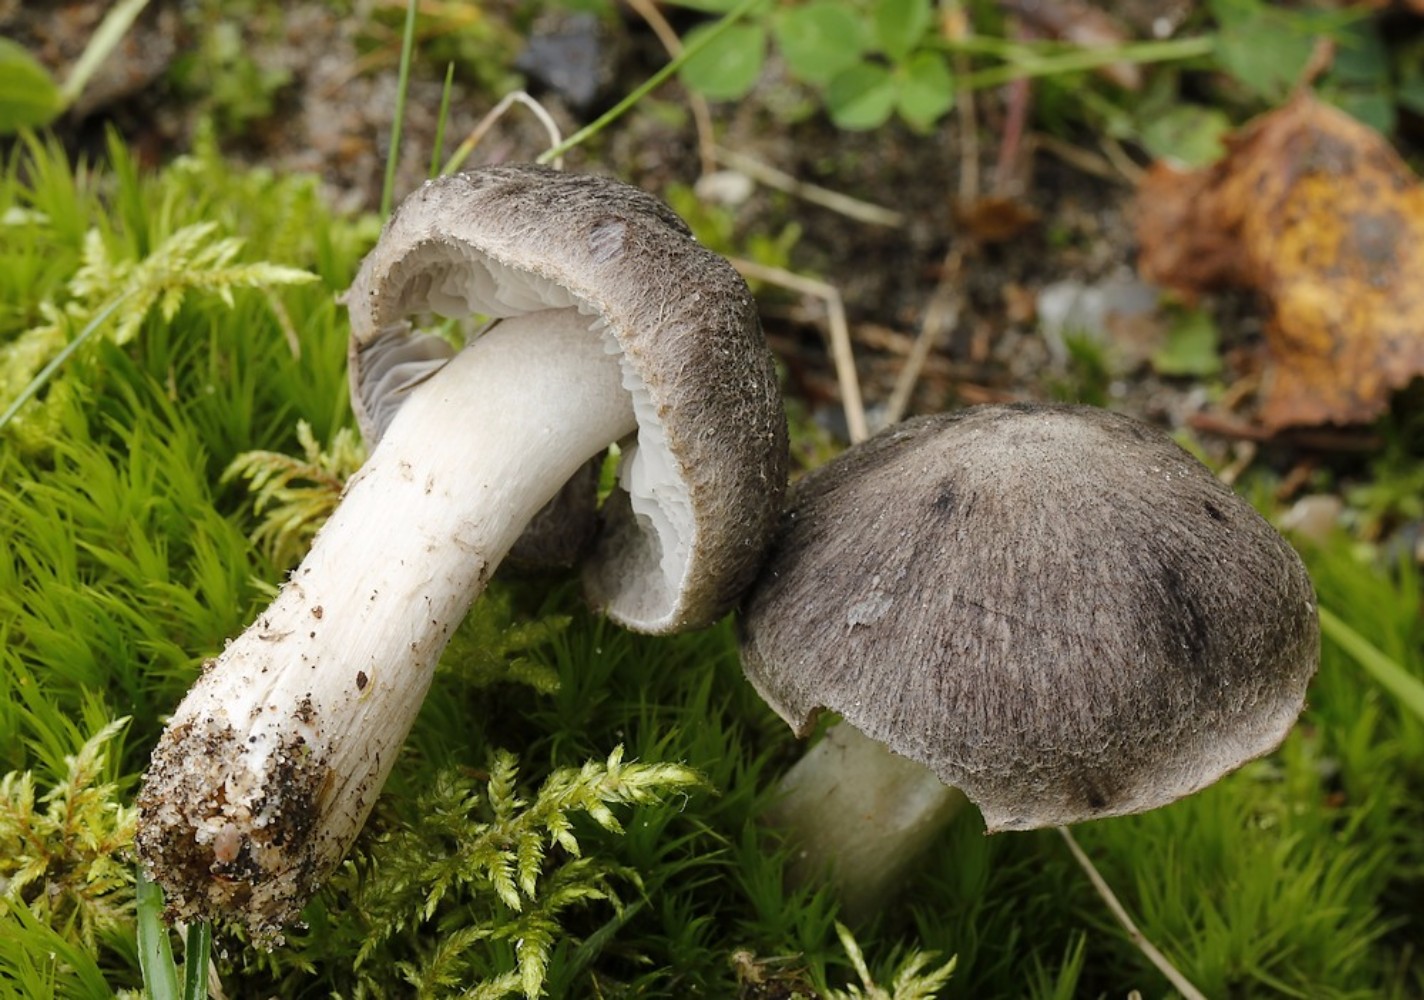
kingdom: Fungi
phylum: Basidiomycota
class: Agaricomycetes
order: Agaricales
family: Tricholomataceae
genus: Tricholoma
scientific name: Tricholoma terreum
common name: jordfarvet ridderhat
